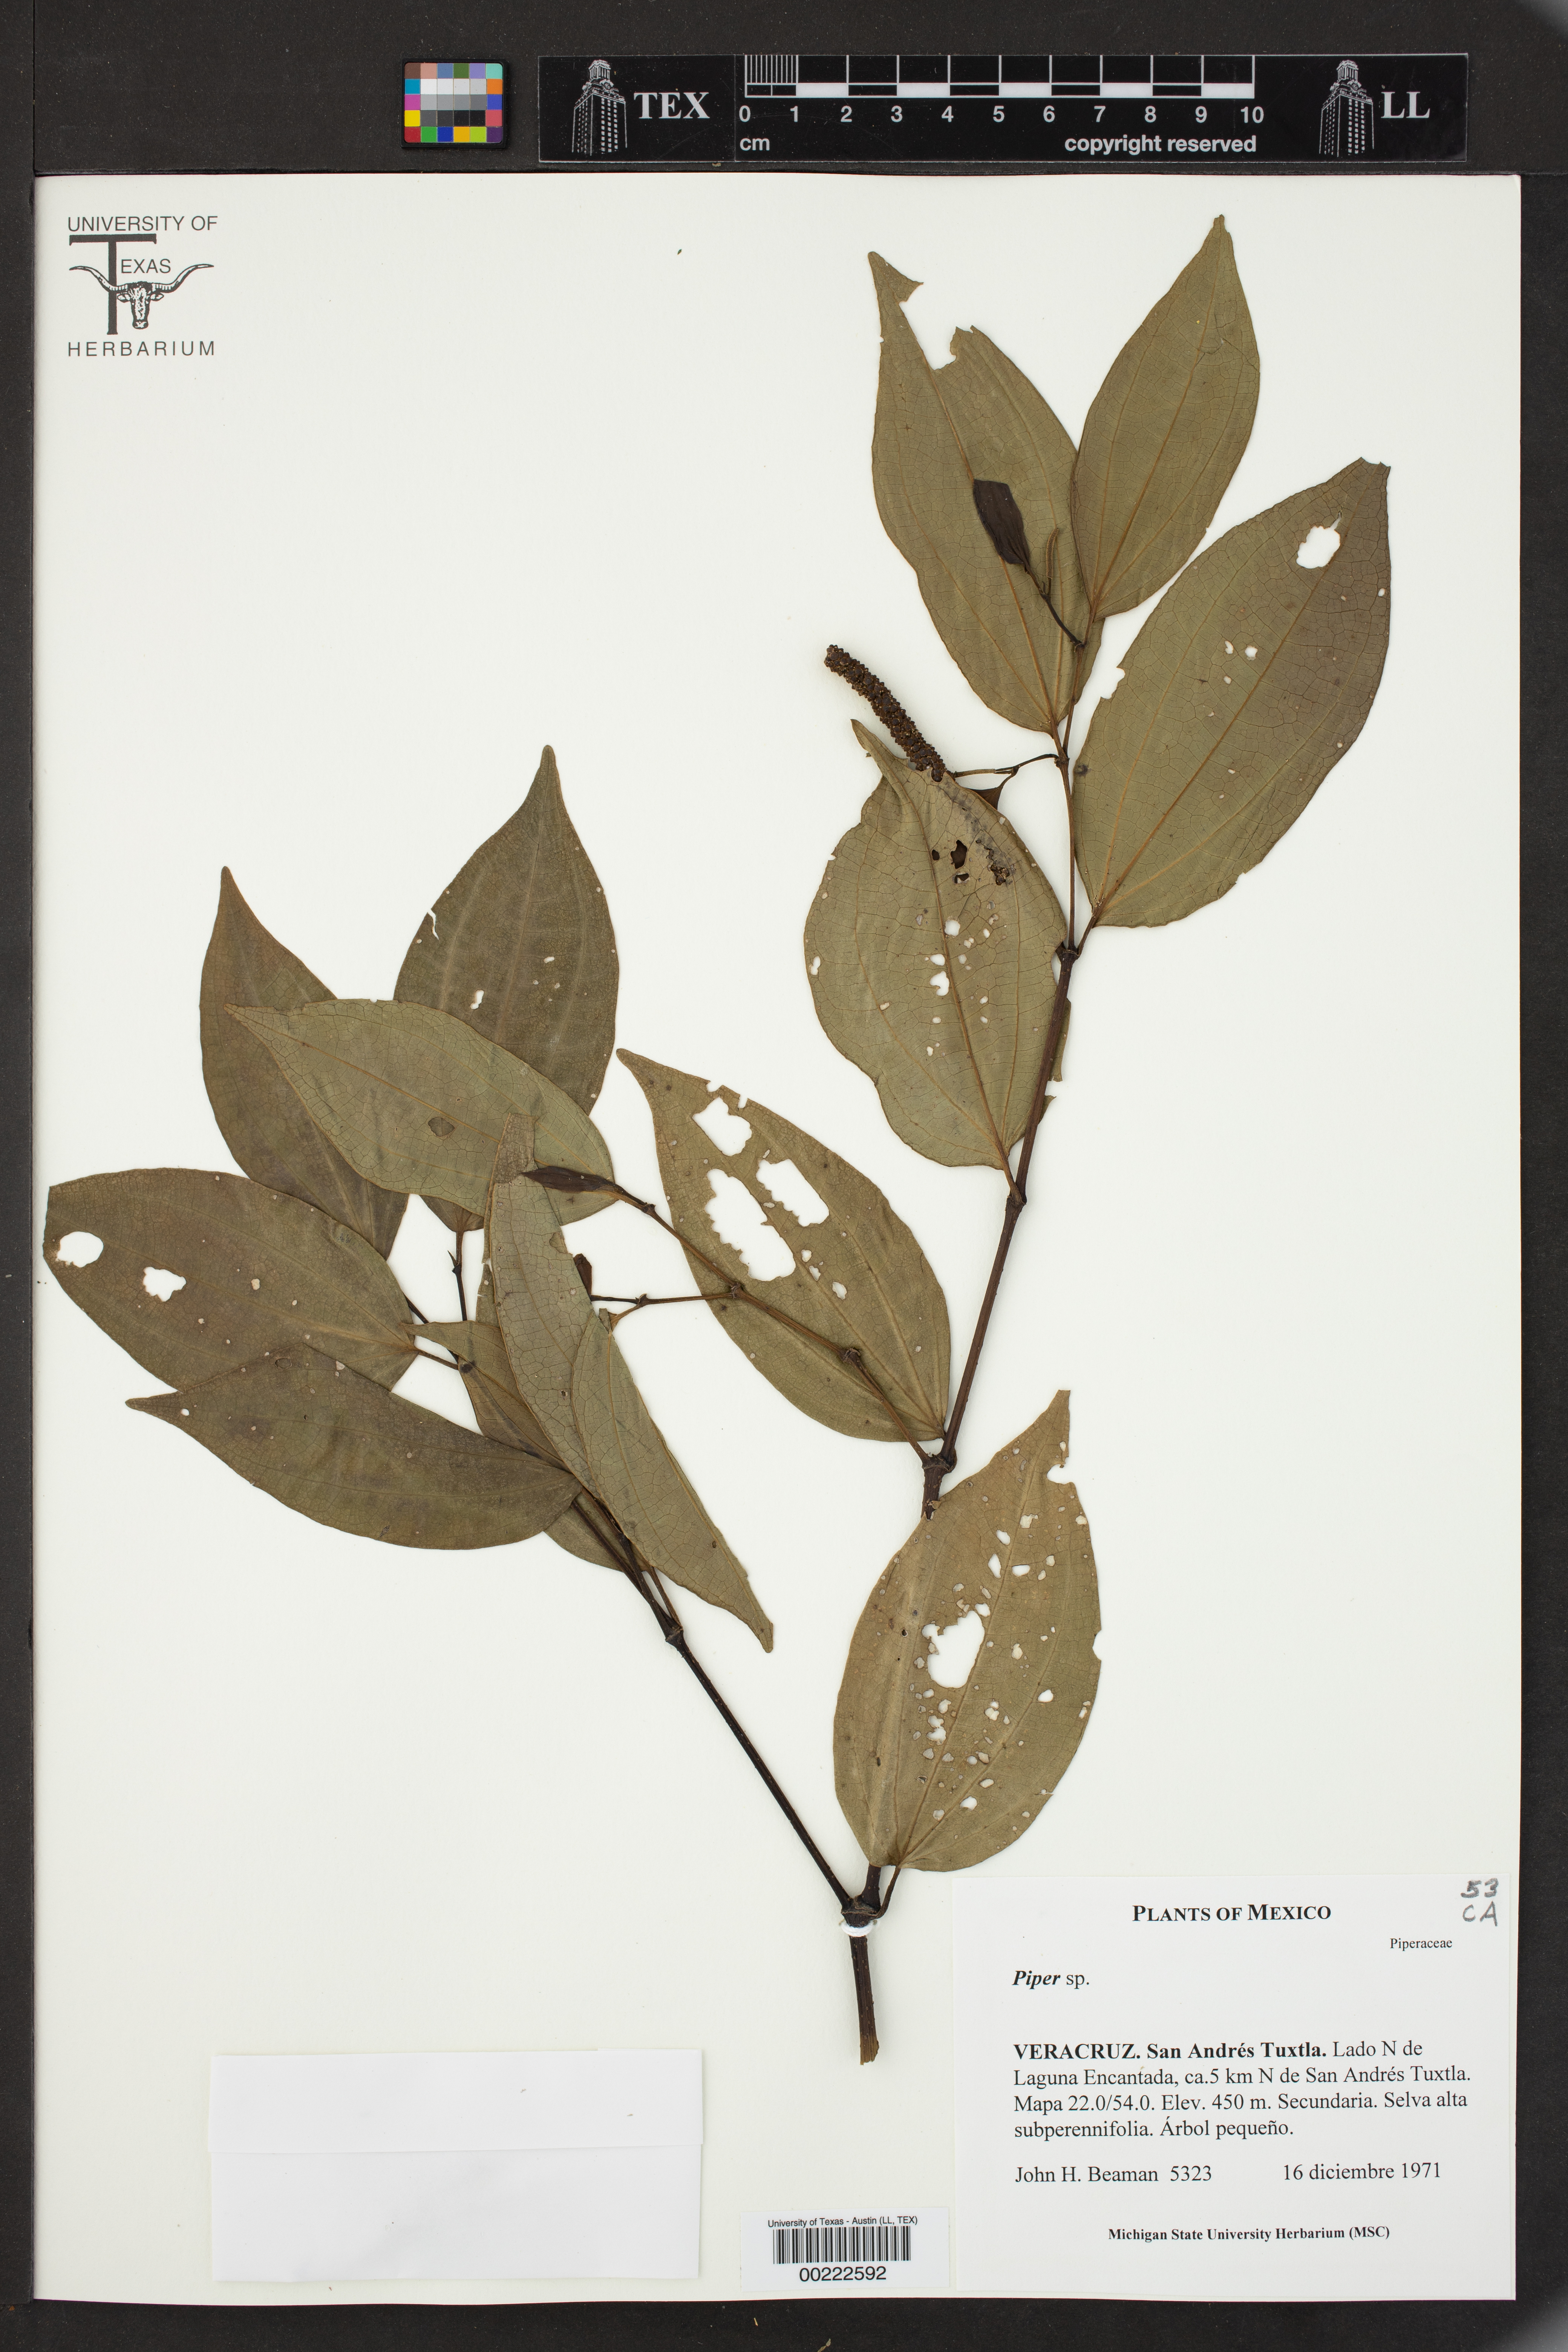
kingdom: Plantae
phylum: Tracheophyta
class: Magnoliopsida
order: Piperales
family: Piperaceae
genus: Piper
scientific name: Piper
